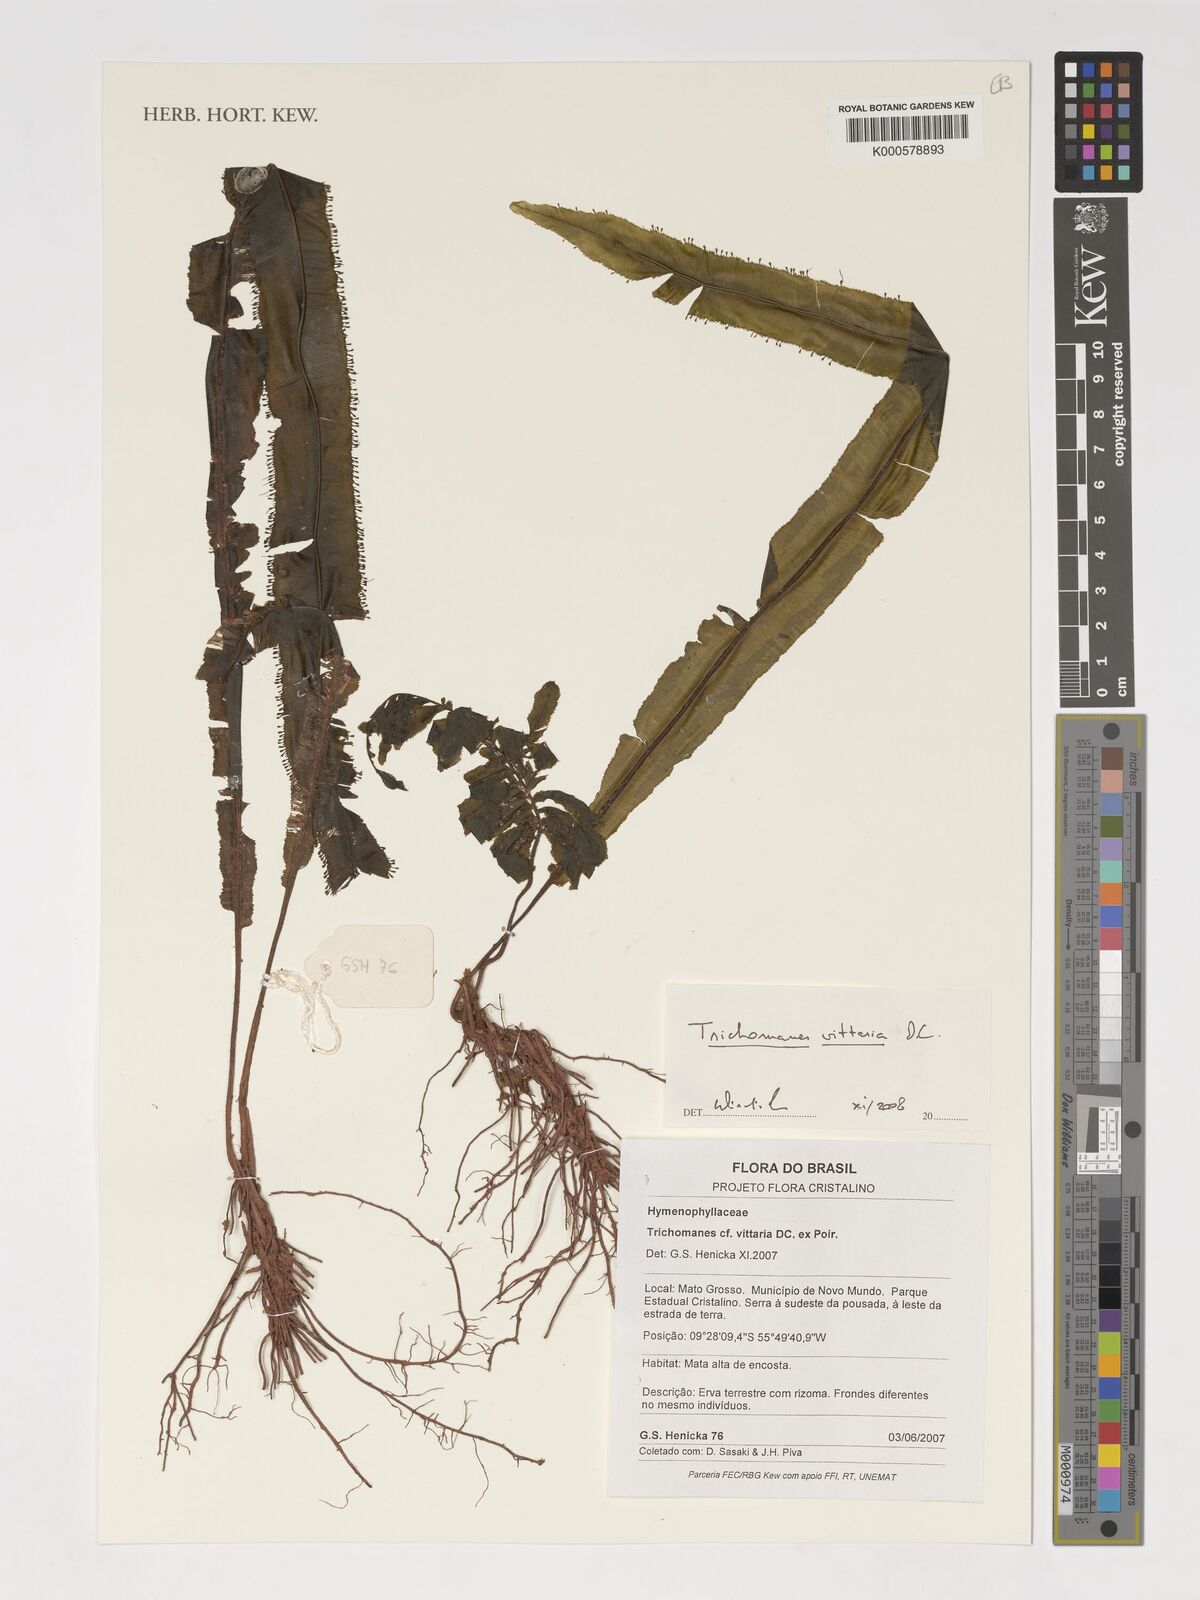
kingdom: Plantae
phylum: Tracheophyta
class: Polypodiopsida
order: Hymenophyllales
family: Hymenophyllaceae
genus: Trichomanes
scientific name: Trichomanes vittaria
